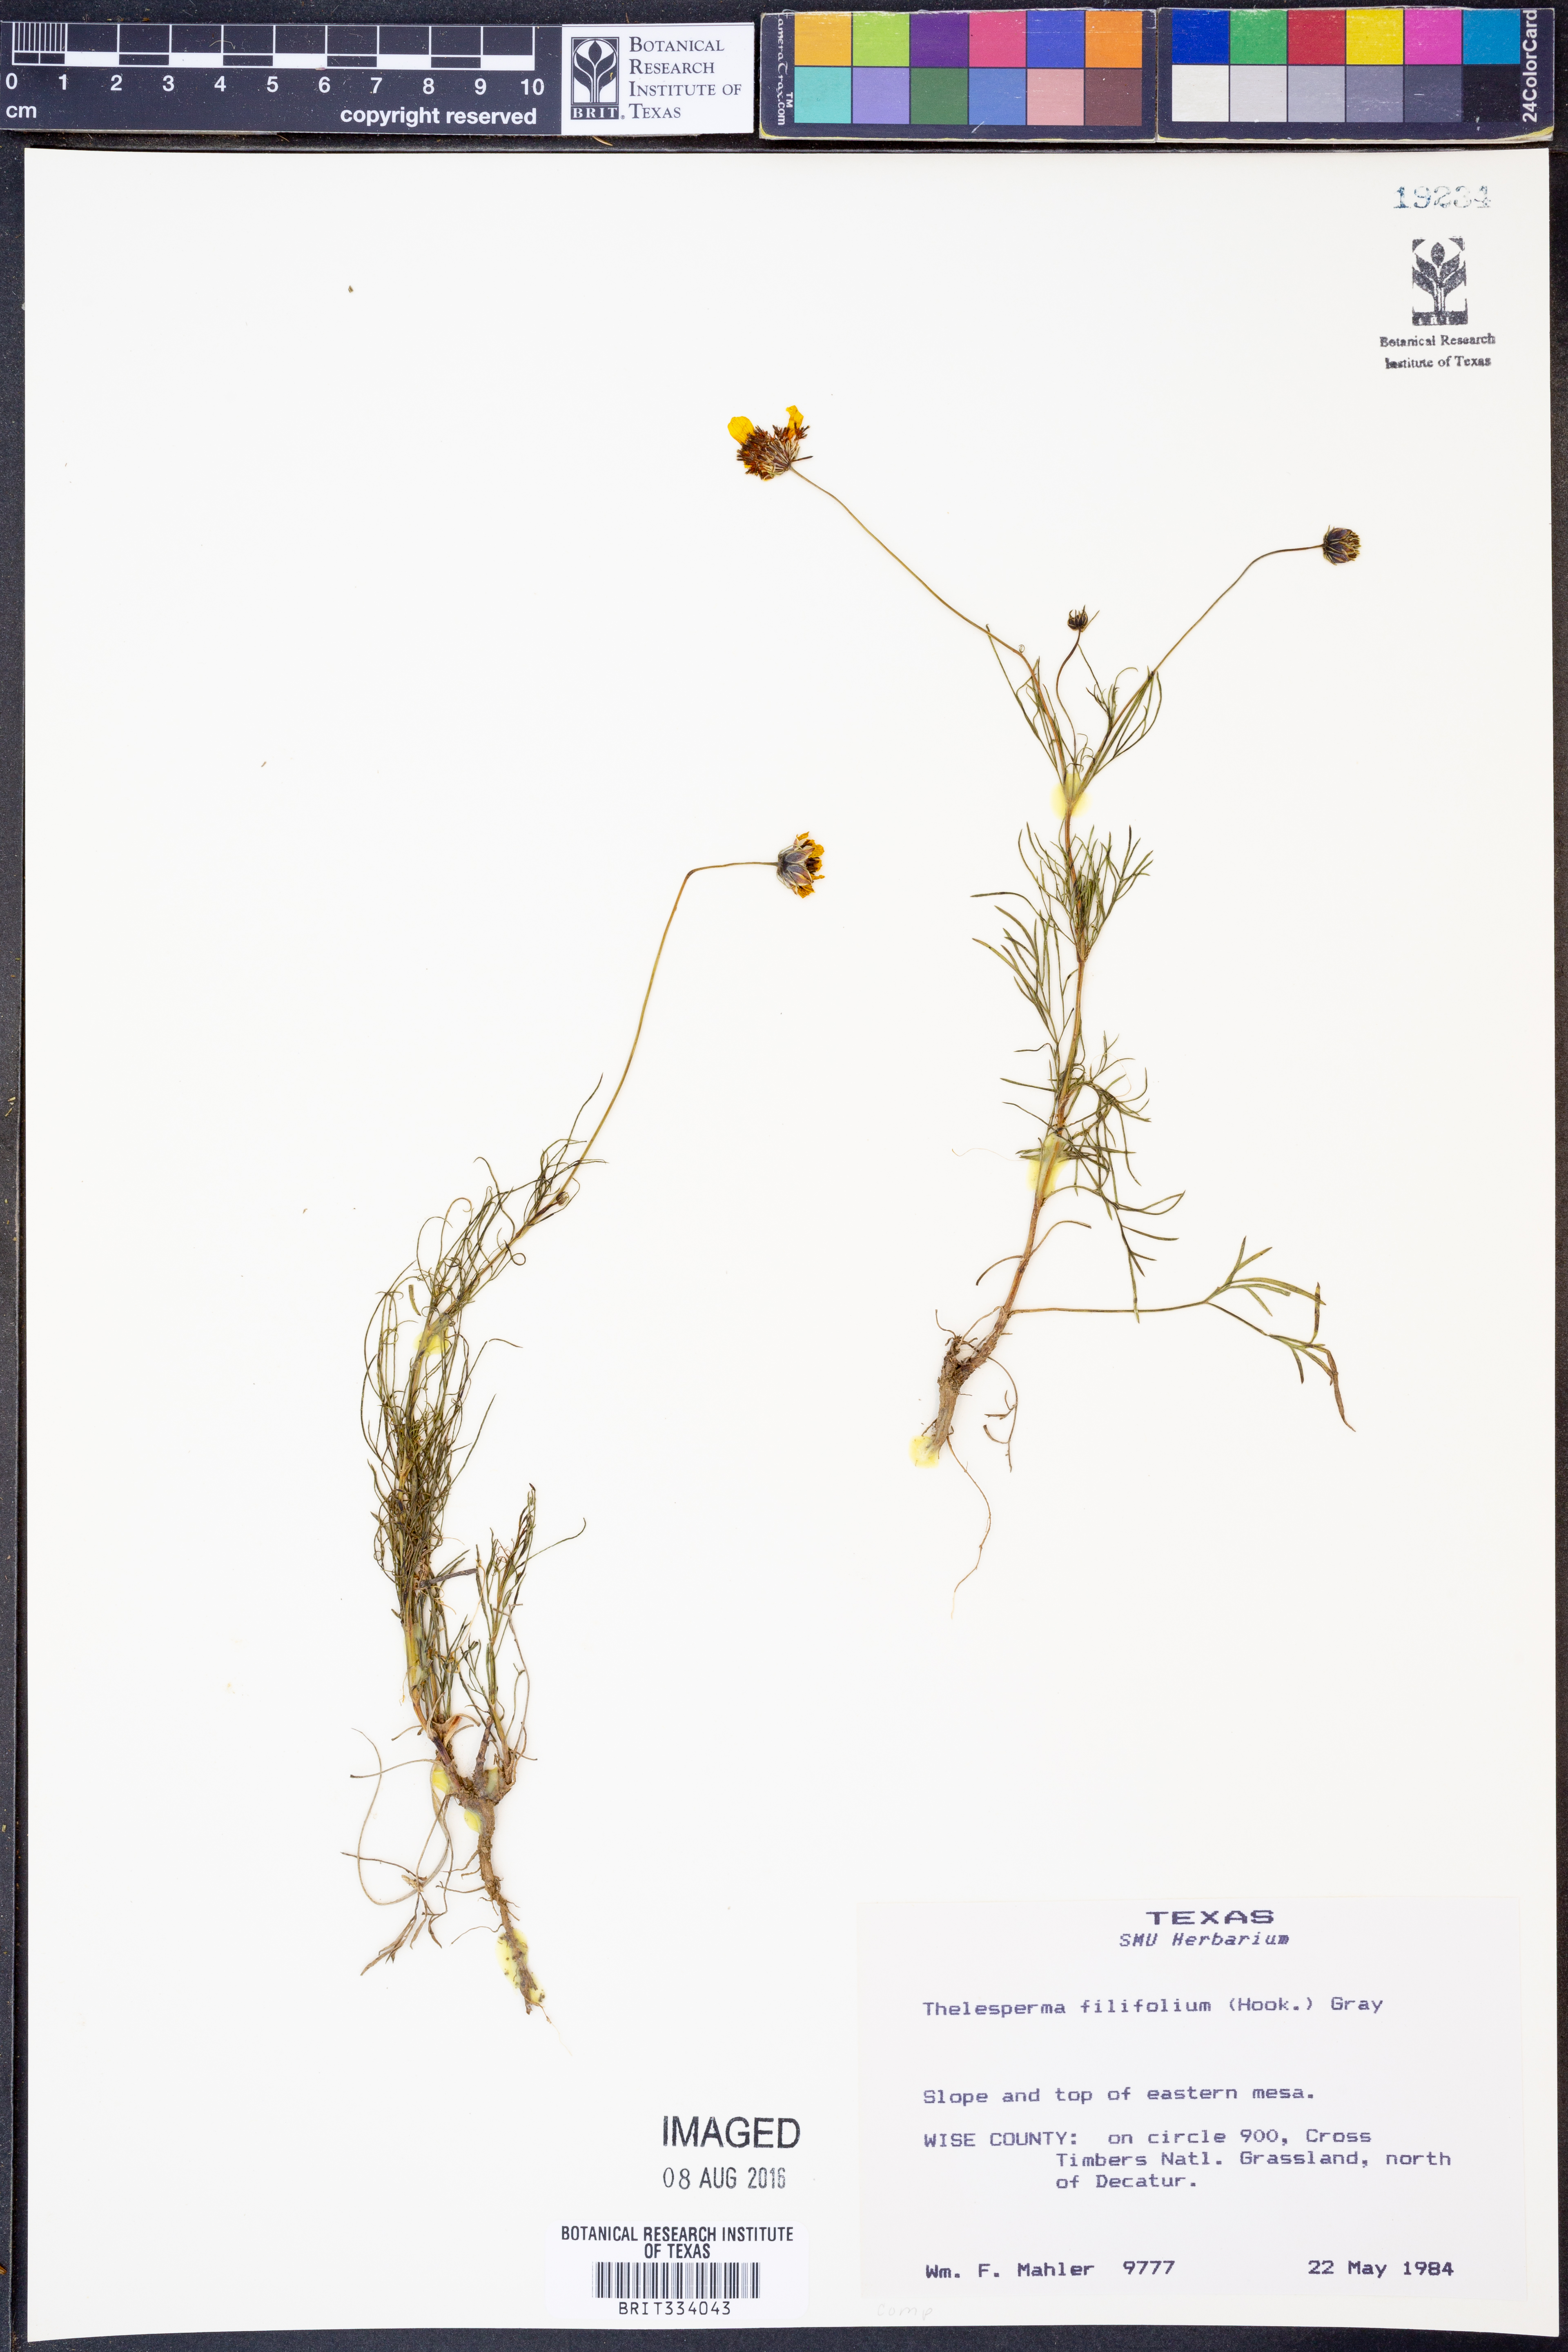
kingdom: Plantae
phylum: Tracheophyta
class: Magnoliopsida
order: Asterales
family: Asteraceae
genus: Thelesperma
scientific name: Thelesperma filifolium
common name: Stiff greenthread
